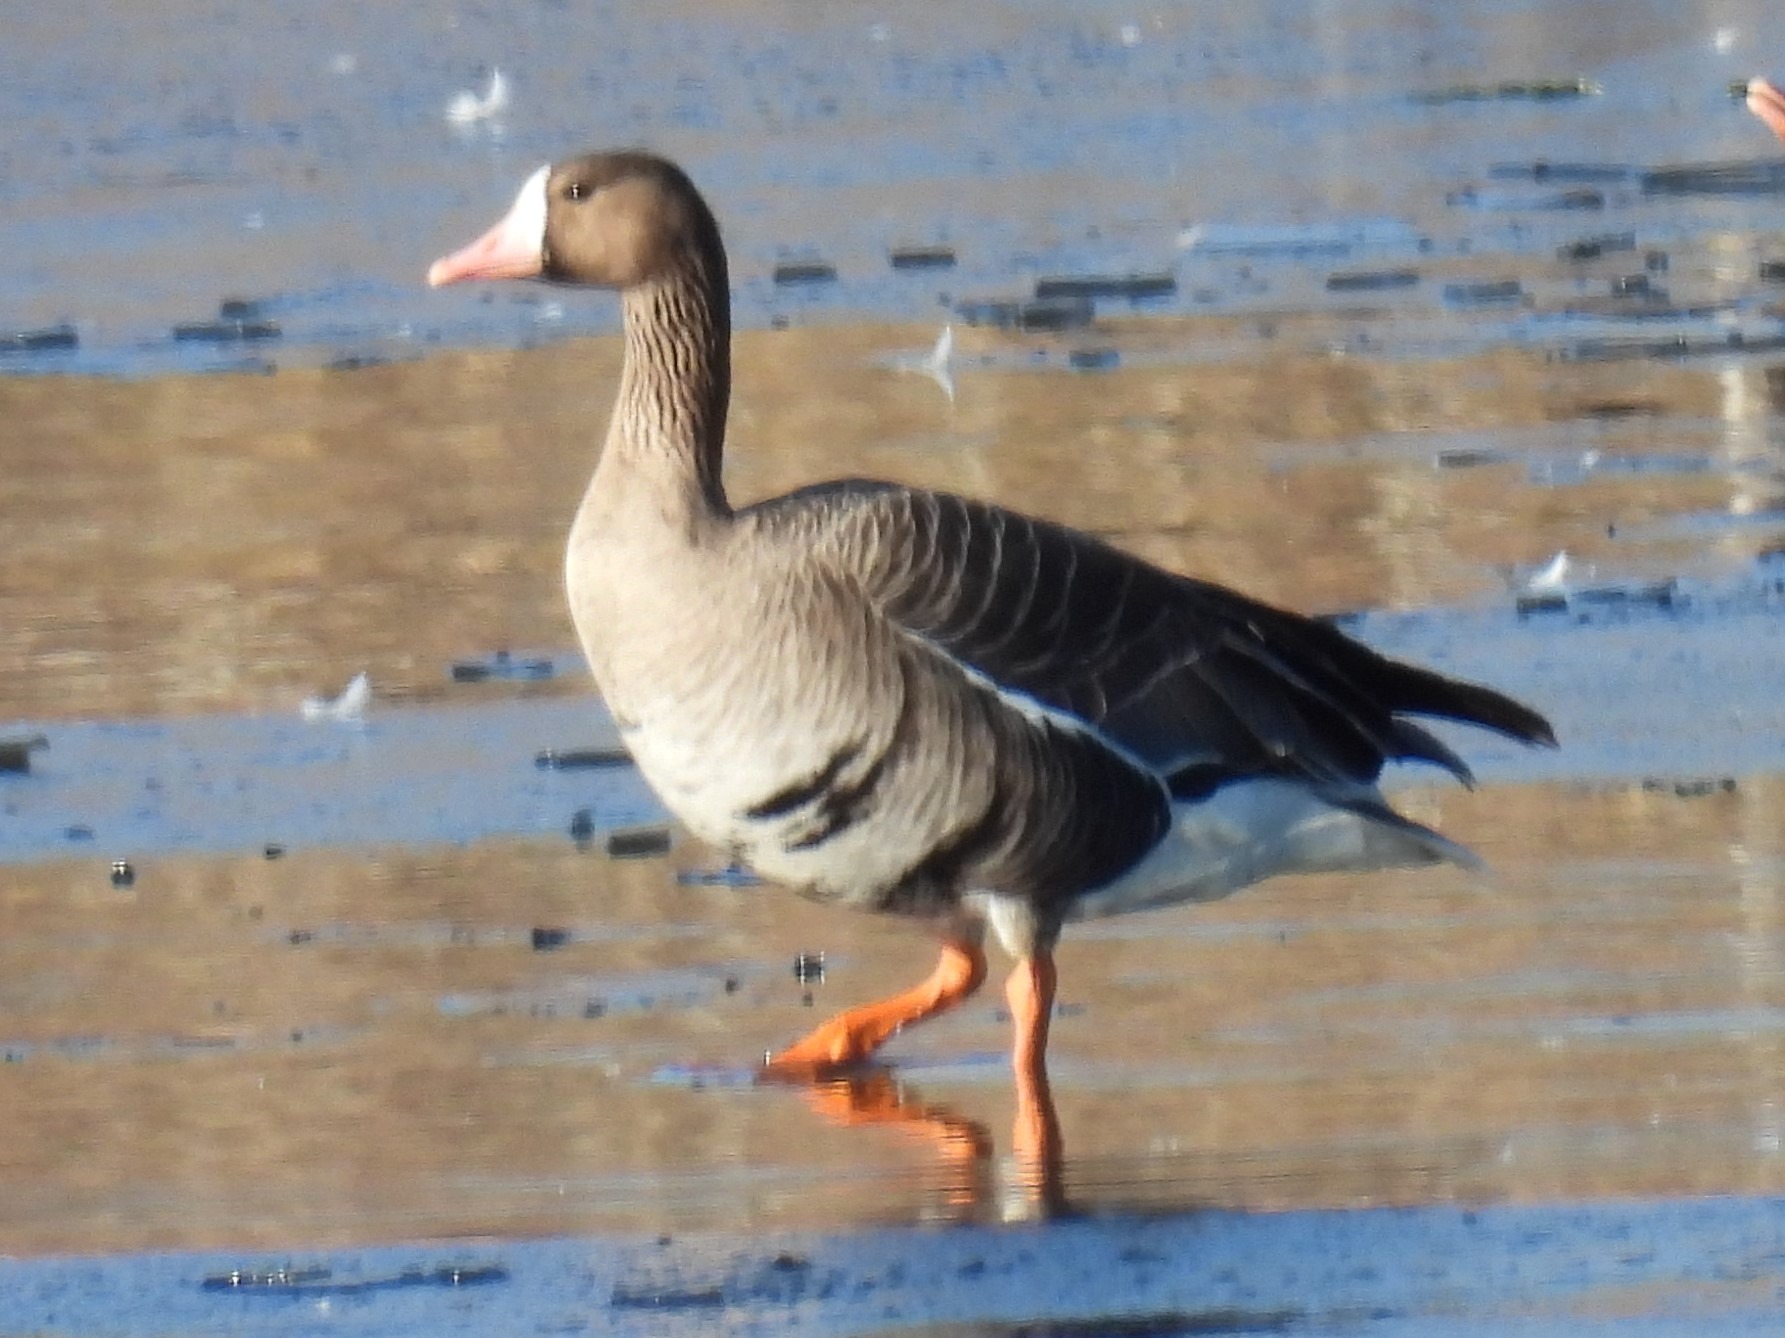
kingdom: Animalia
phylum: Chordata
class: Aves
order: Anseriformes
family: Anatidae
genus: Anser
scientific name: Anser albifrons
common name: Blisgås
